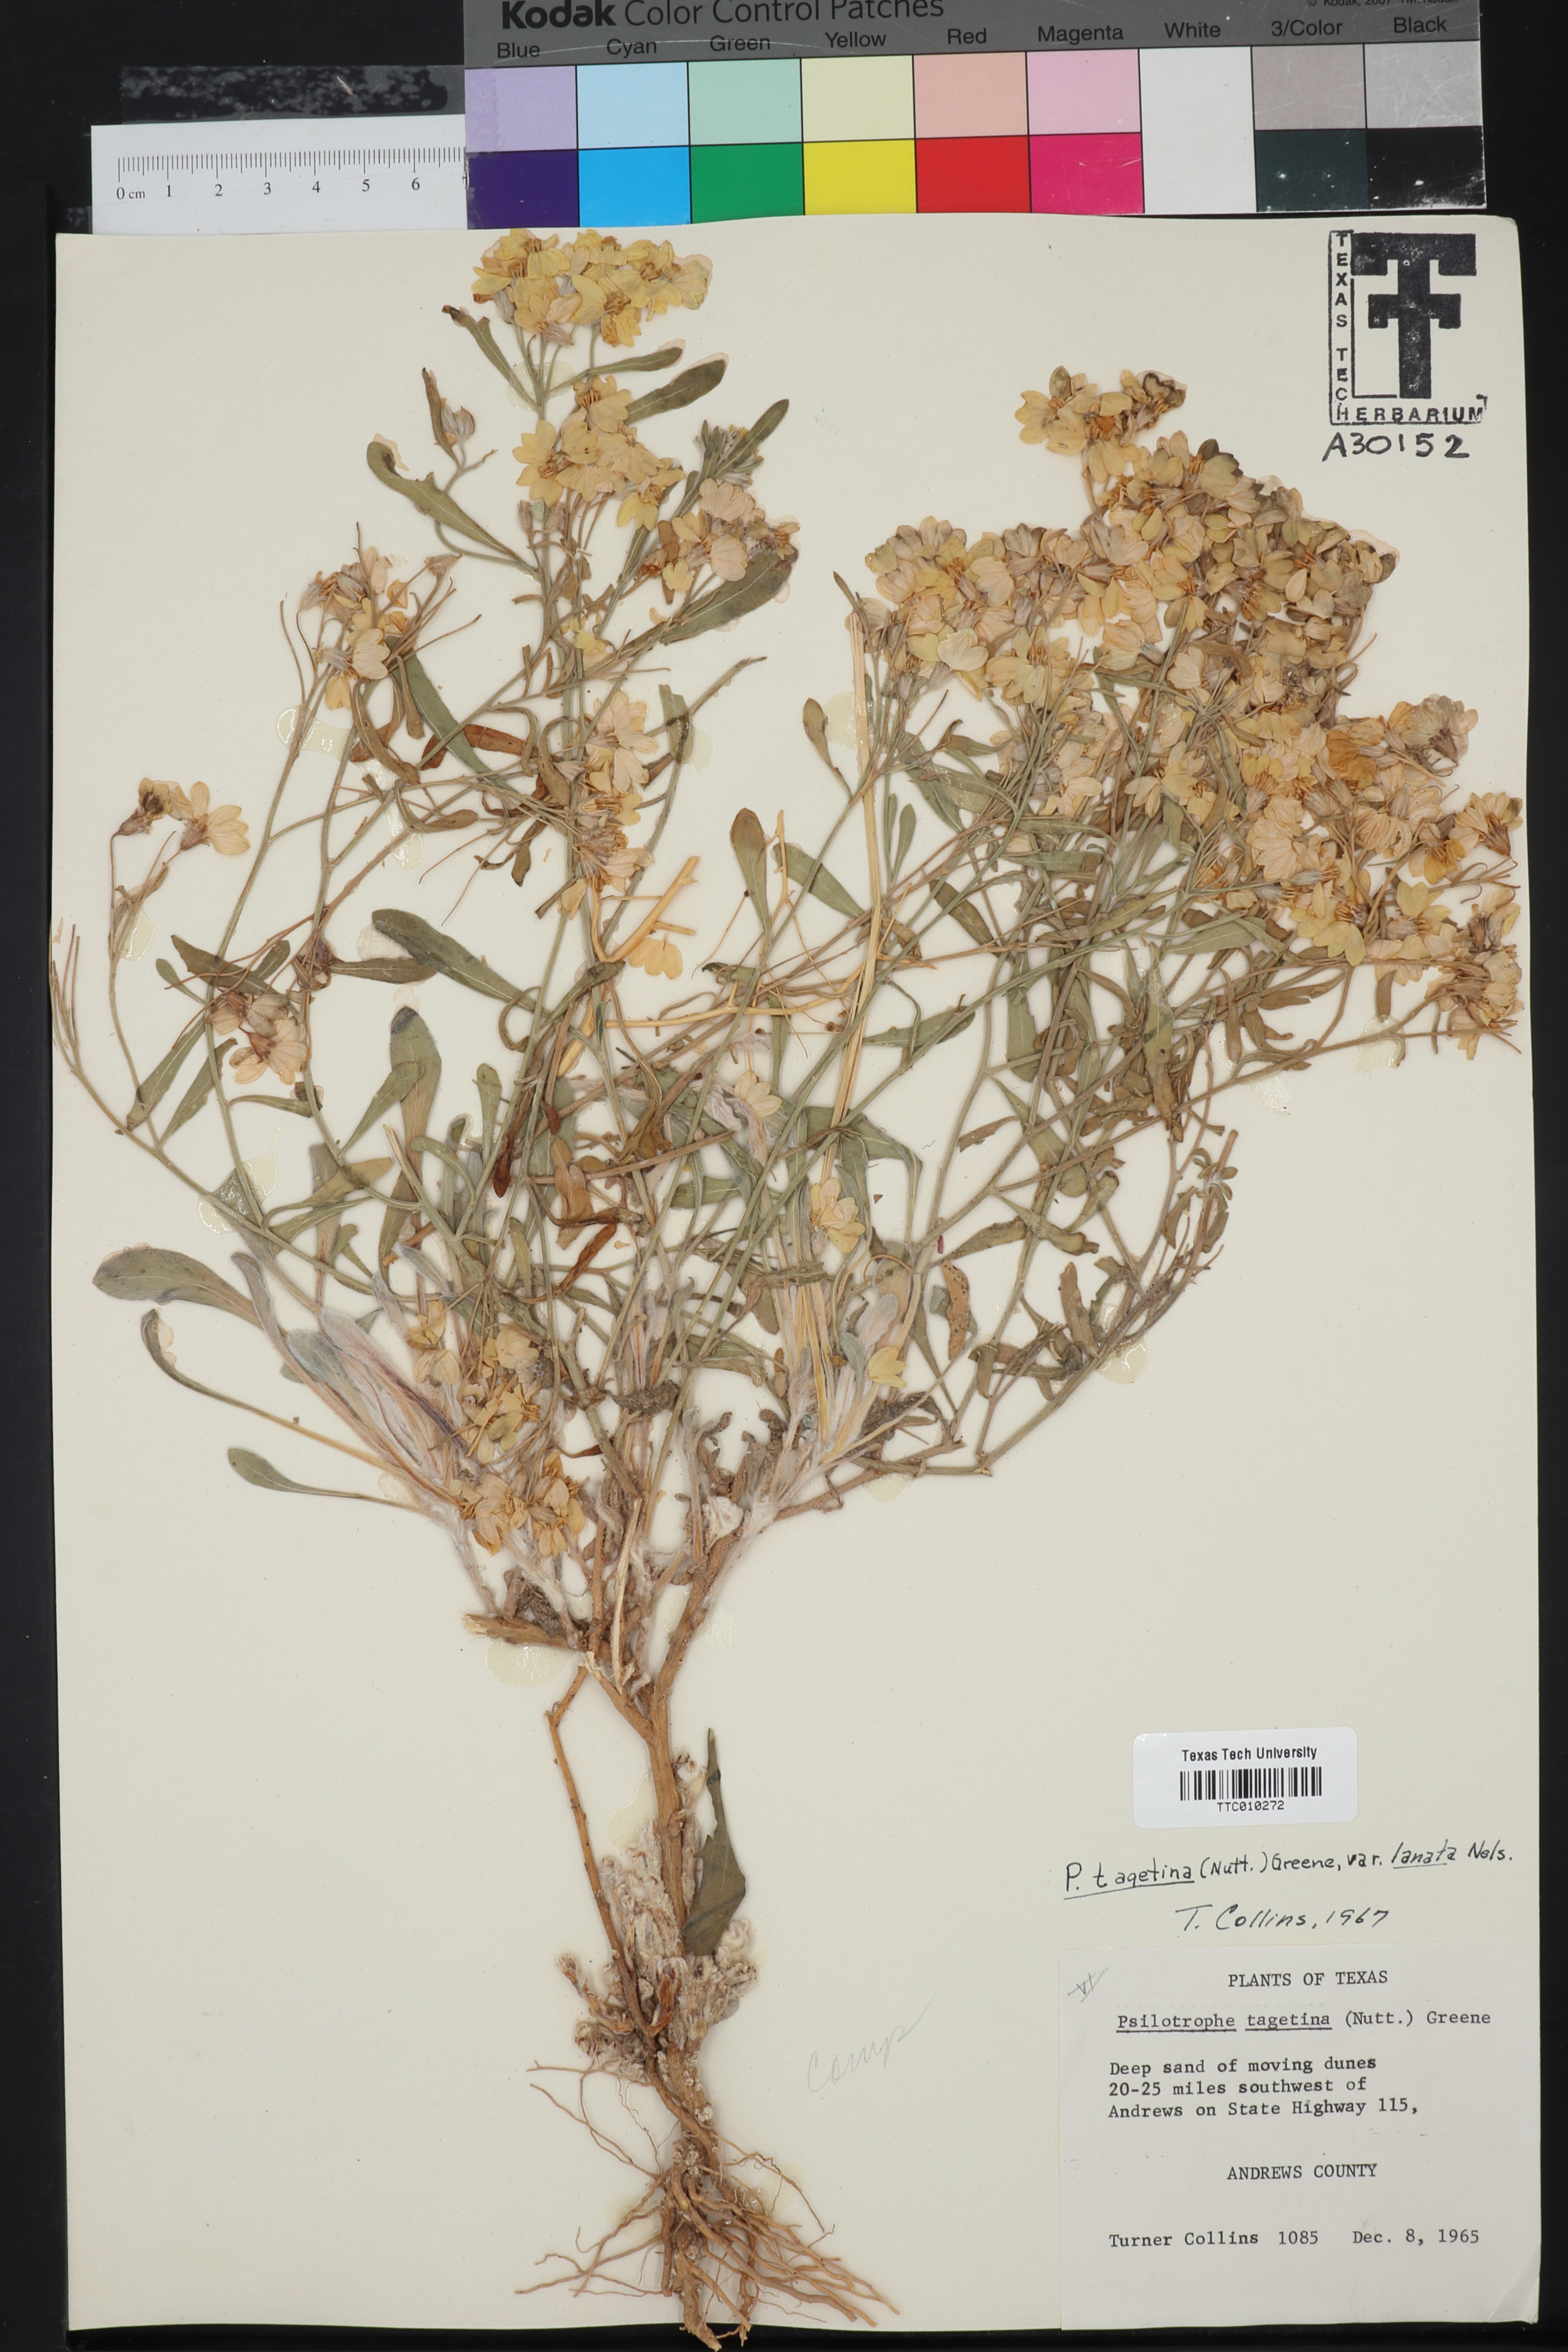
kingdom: Plantae
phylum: Tracheophyta
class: Magnoliopsida
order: Asterales
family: Asteraceae
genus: Psilostrophe
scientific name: Psilostrophe tagetina
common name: Marigold paper-flower
